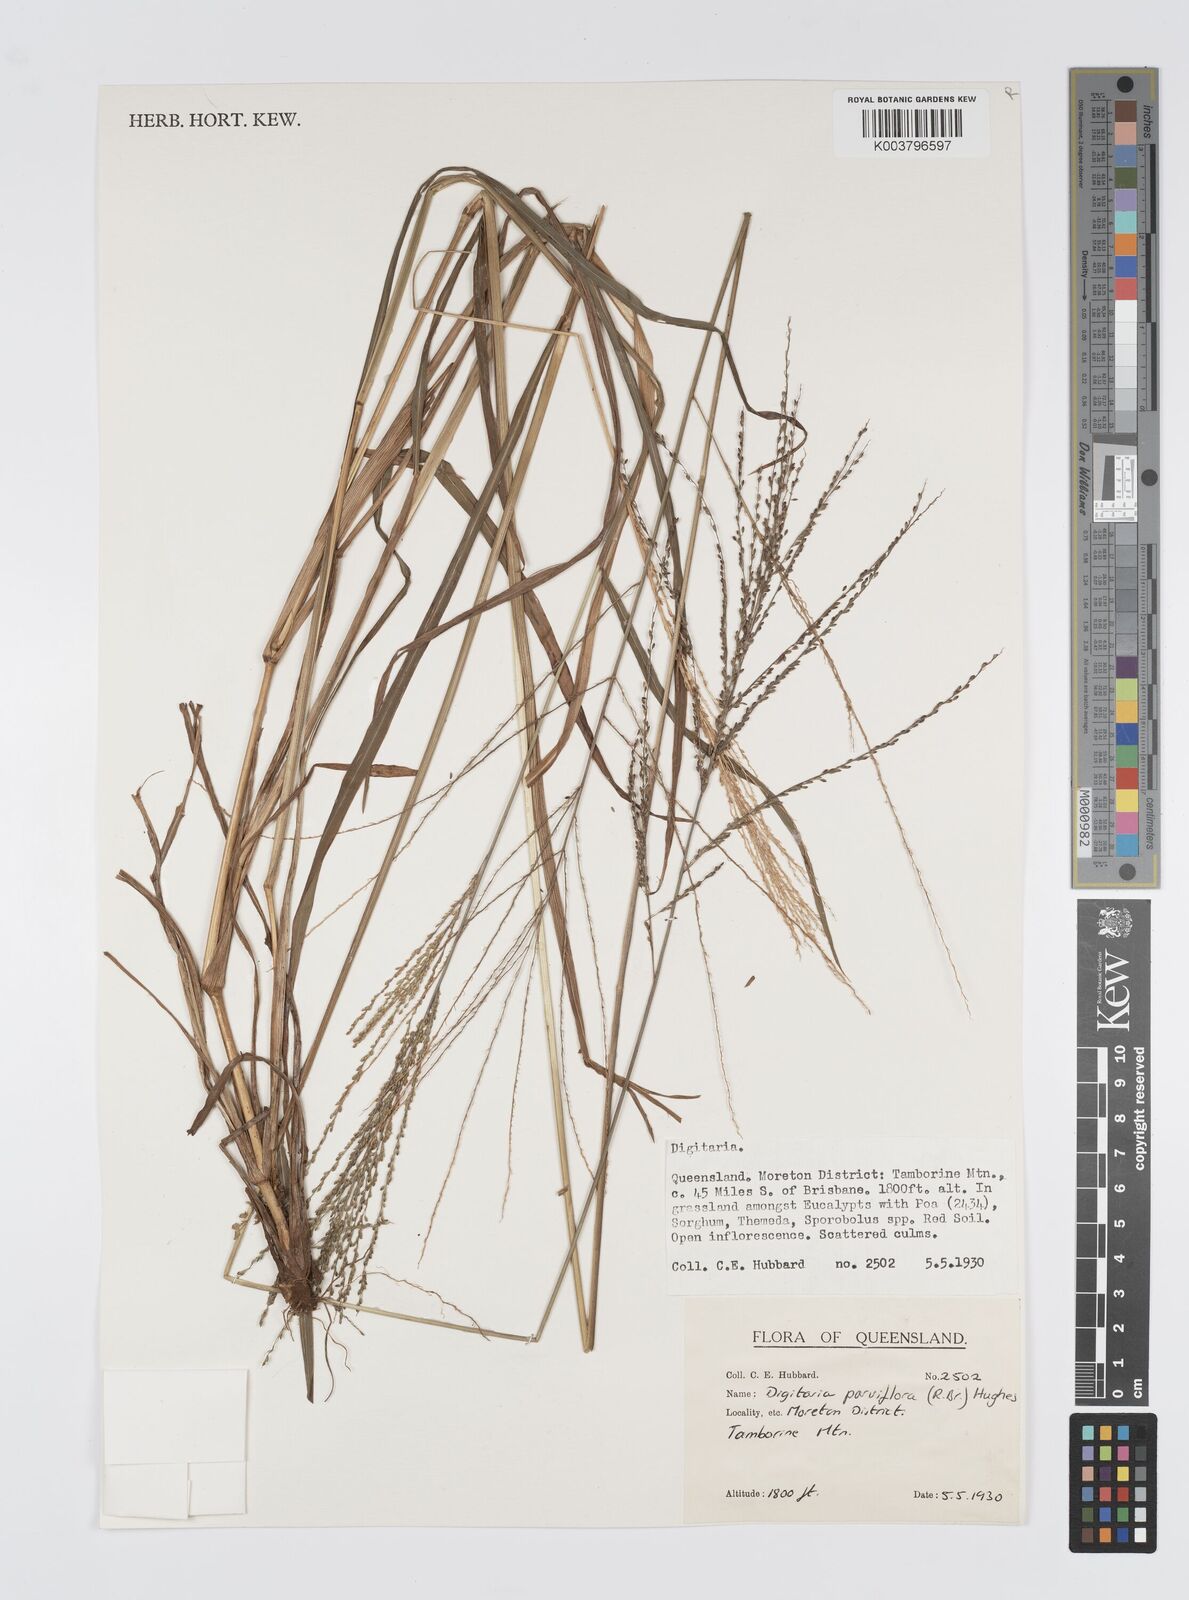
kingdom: Plantae
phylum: Tracheophyta
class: Liliopsida
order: Poales
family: Poaceae
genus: Digitaria
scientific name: Digitaria parviflora
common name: Small-flower finger grass
